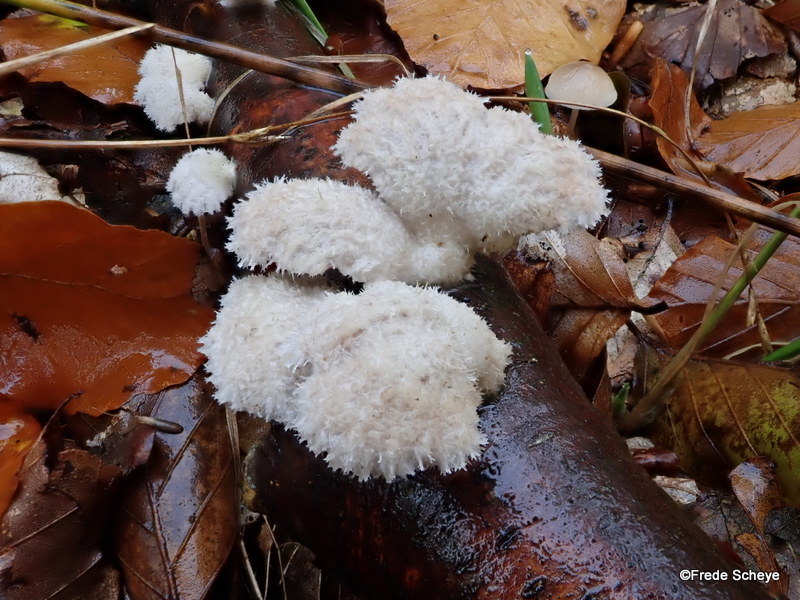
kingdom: Fungi
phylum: Basidiomycota
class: Agaricomycetes
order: Agaricales
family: Schizophyllaceae
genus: Schizophyllum
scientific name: Schizophyllum commune
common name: kløvblad
